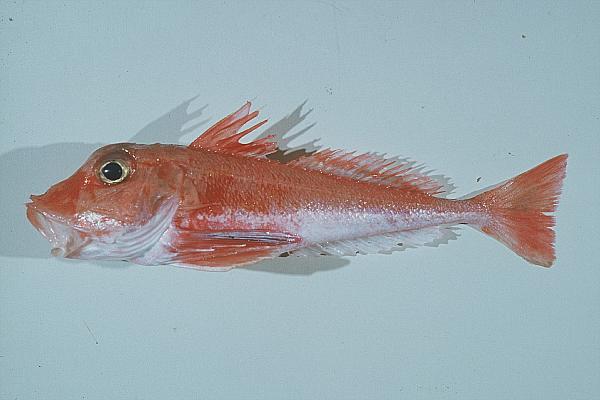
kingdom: Animalia
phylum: Chordata
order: Scorpaeniformes
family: Triglidae
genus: Lepidotrigla
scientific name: Lepidotrigla multispinosa
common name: Spiny gurnard
